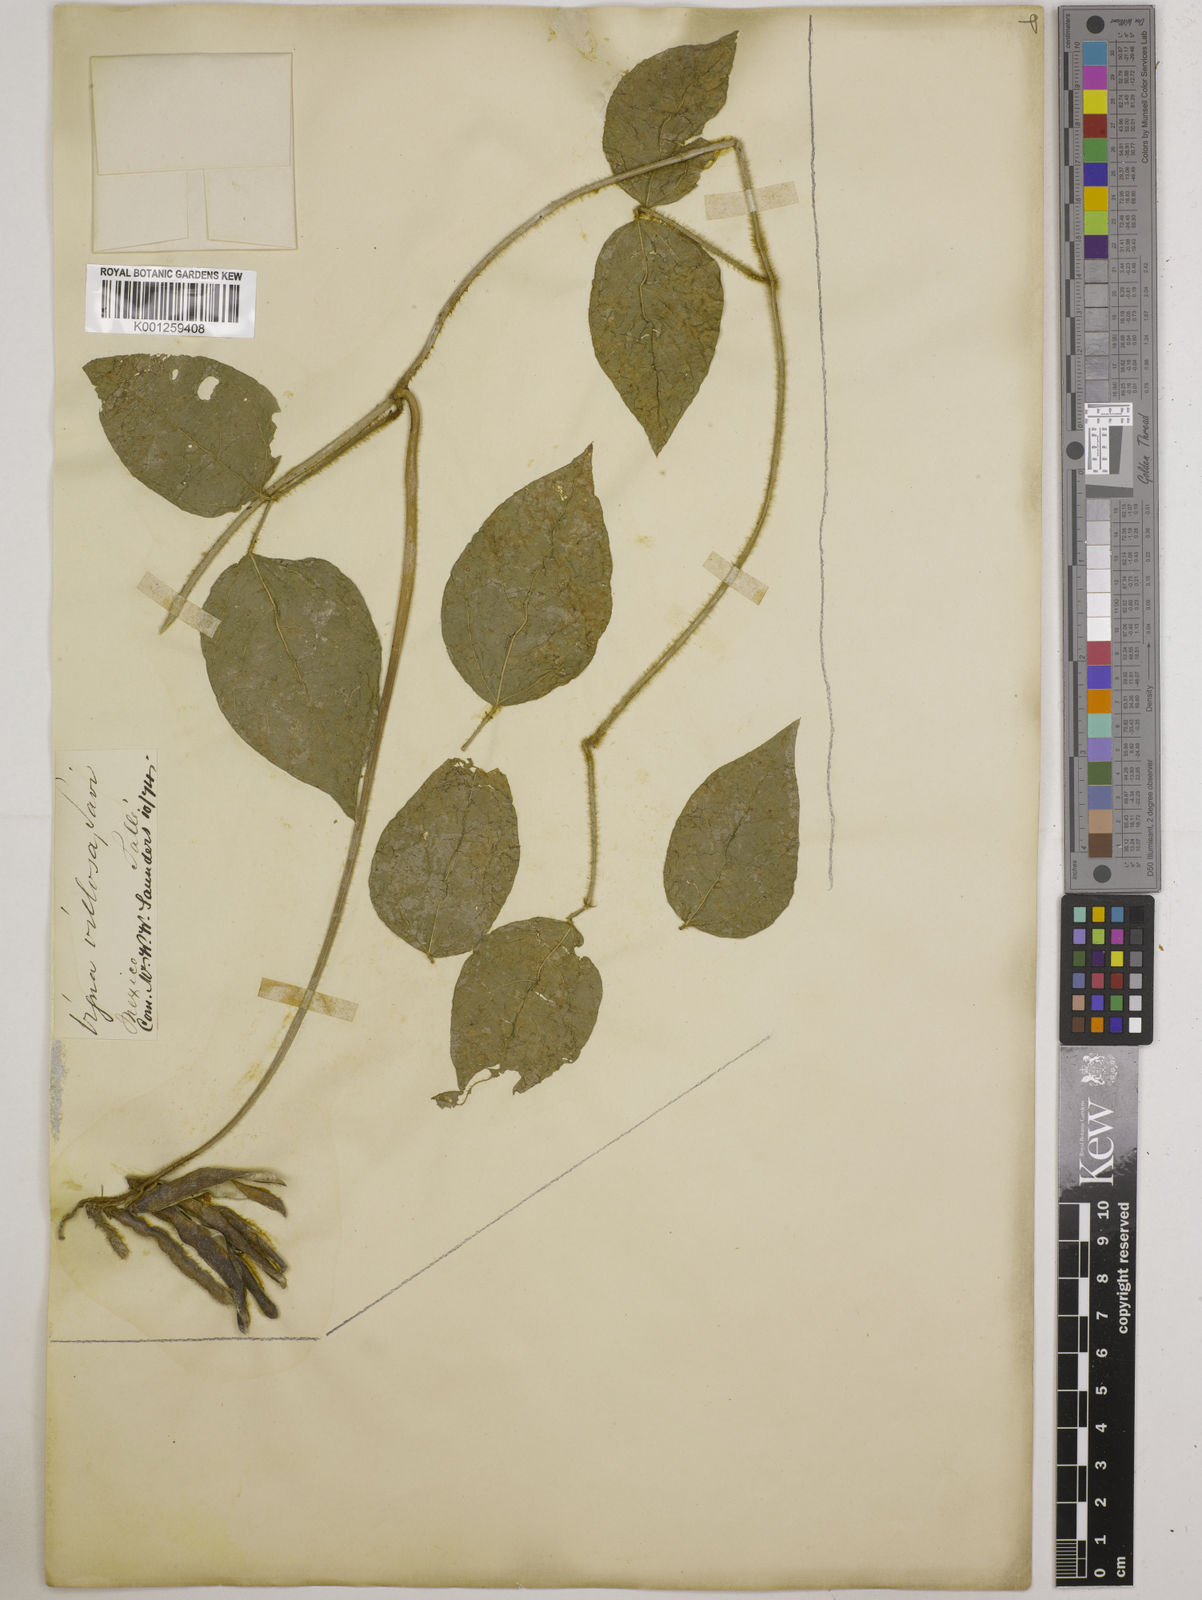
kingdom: Plantae
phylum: Tracheophyta
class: Magnoliopsida
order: Fabales
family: Fabaceae
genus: Vigna
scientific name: Vigna luteola
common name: Hairypod cowpea
